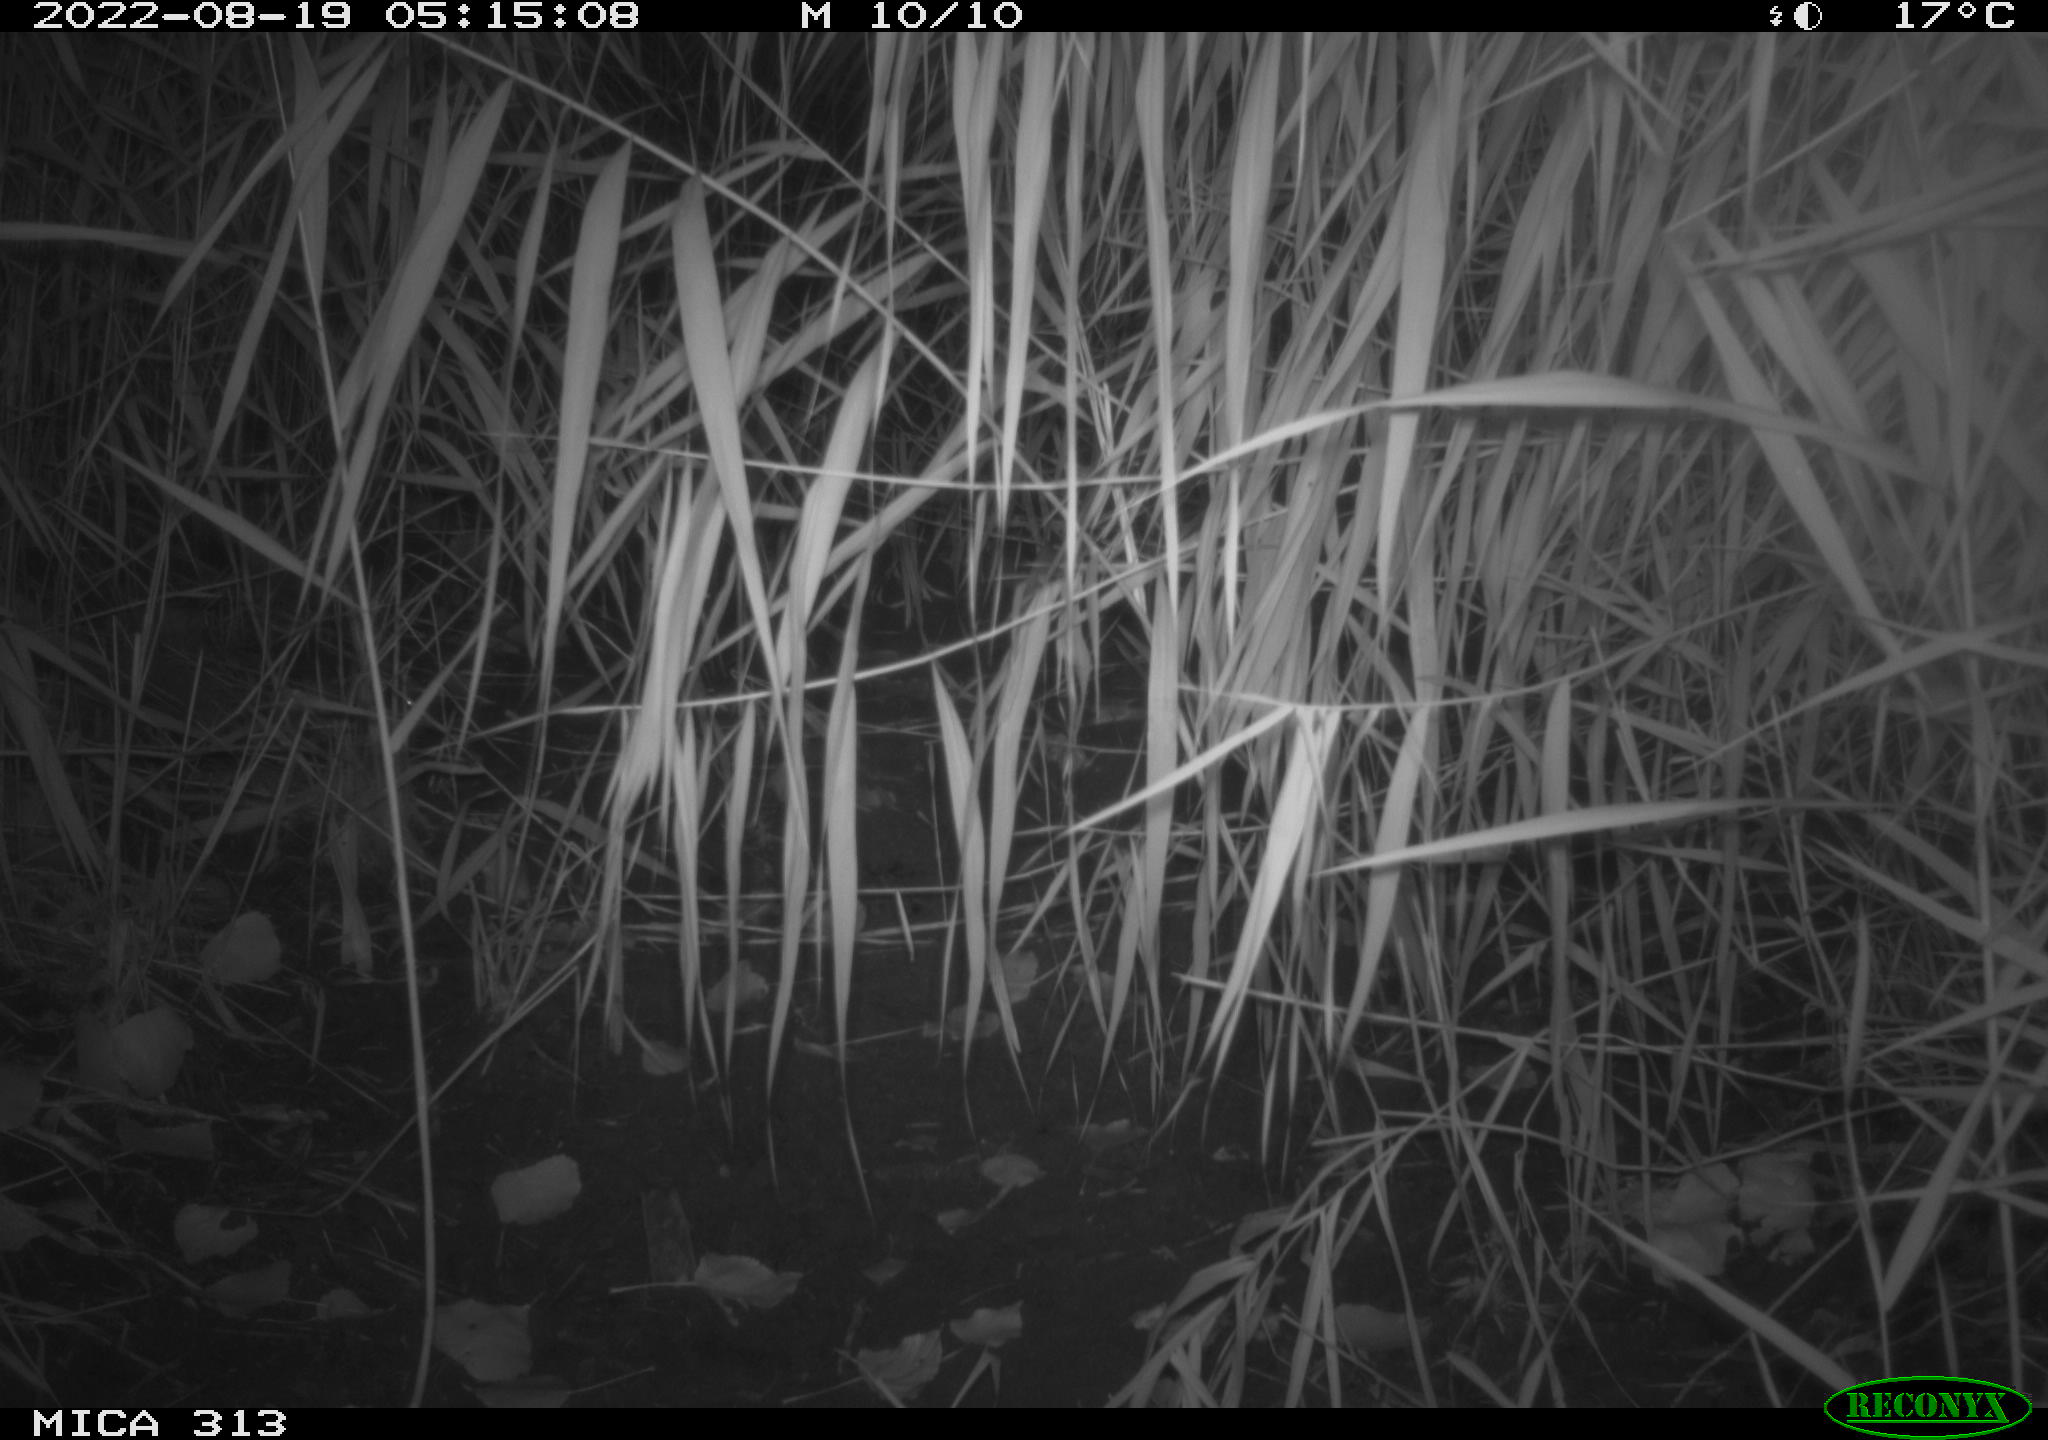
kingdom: Animalia
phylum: Chordata
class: Mammalia
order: Rodentia
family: Muridae
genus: Rattus
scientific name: Rattus norvegicus
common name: Brown rat
